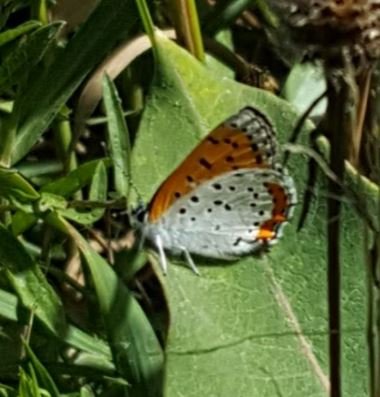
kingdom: Animalia
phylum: Arthropoda
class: Insecta
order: Lepidoptera
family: Sesiidae
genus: Sesia
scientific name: Sesia Lycaena hyllus
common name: Bronze Copper
